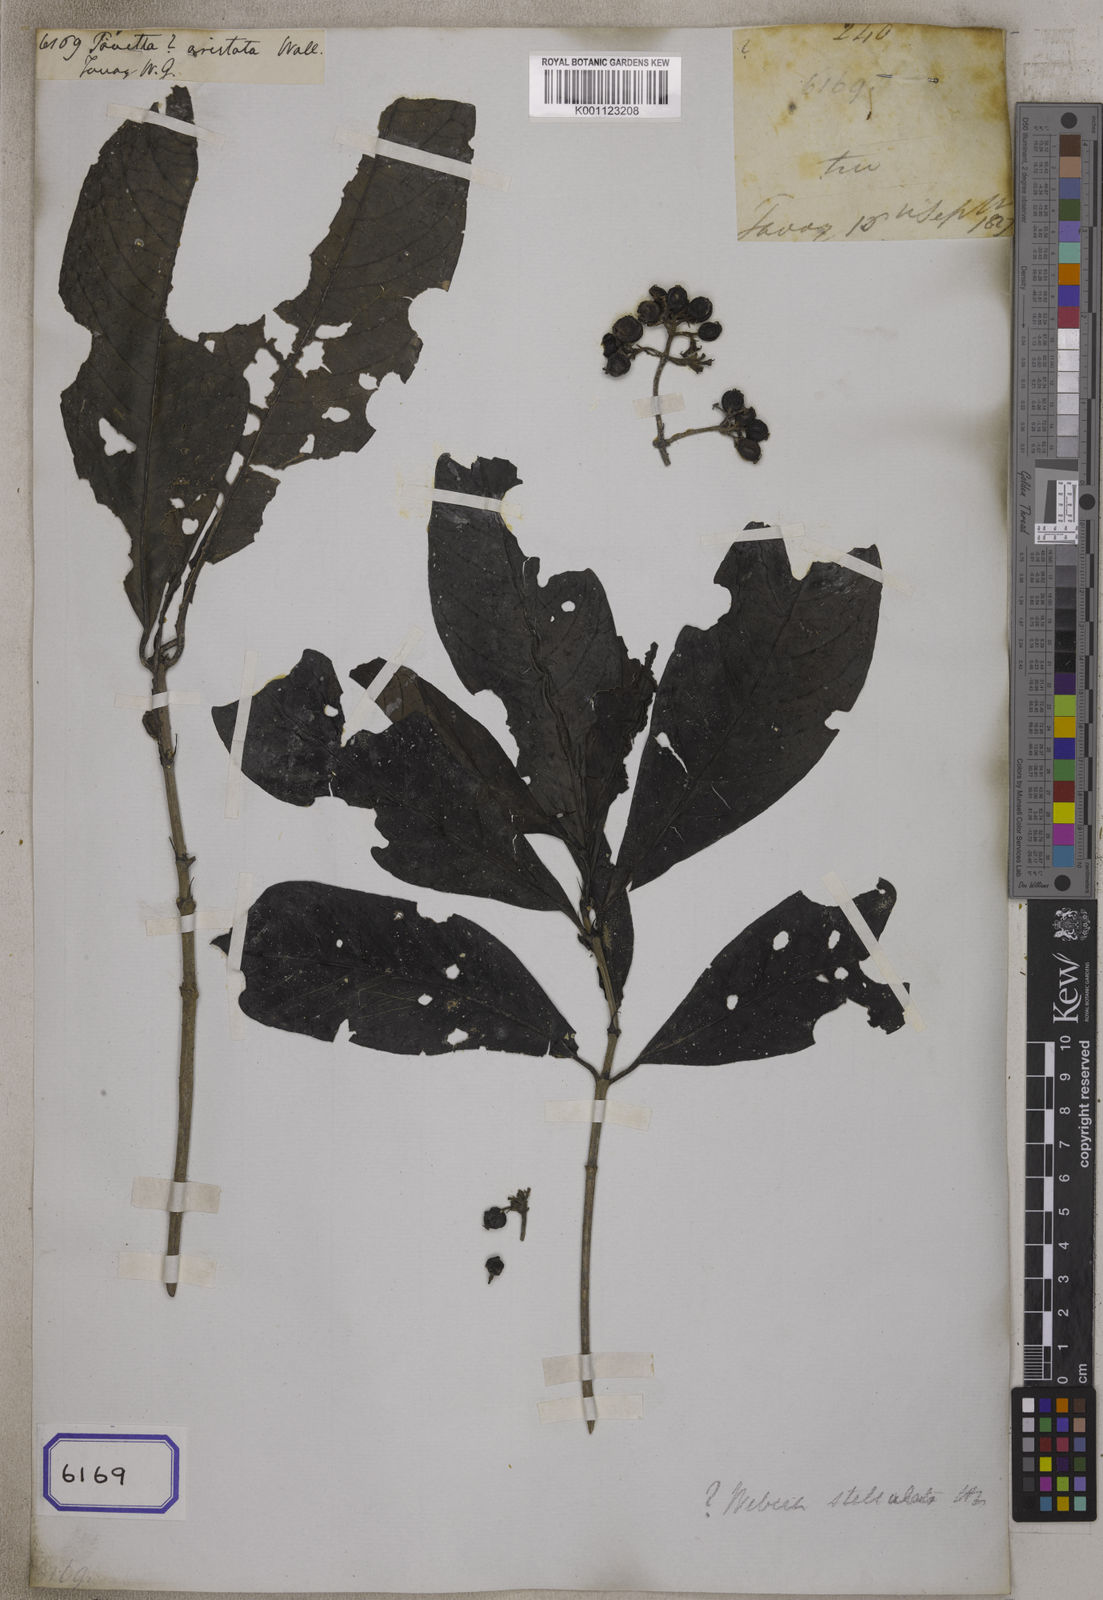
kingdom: Plantae
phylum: Tracheophyta
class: Magnoliopsida
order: Gentianales
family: Rubiaceae
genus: Tarenna
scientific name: Tarenna stellulata
